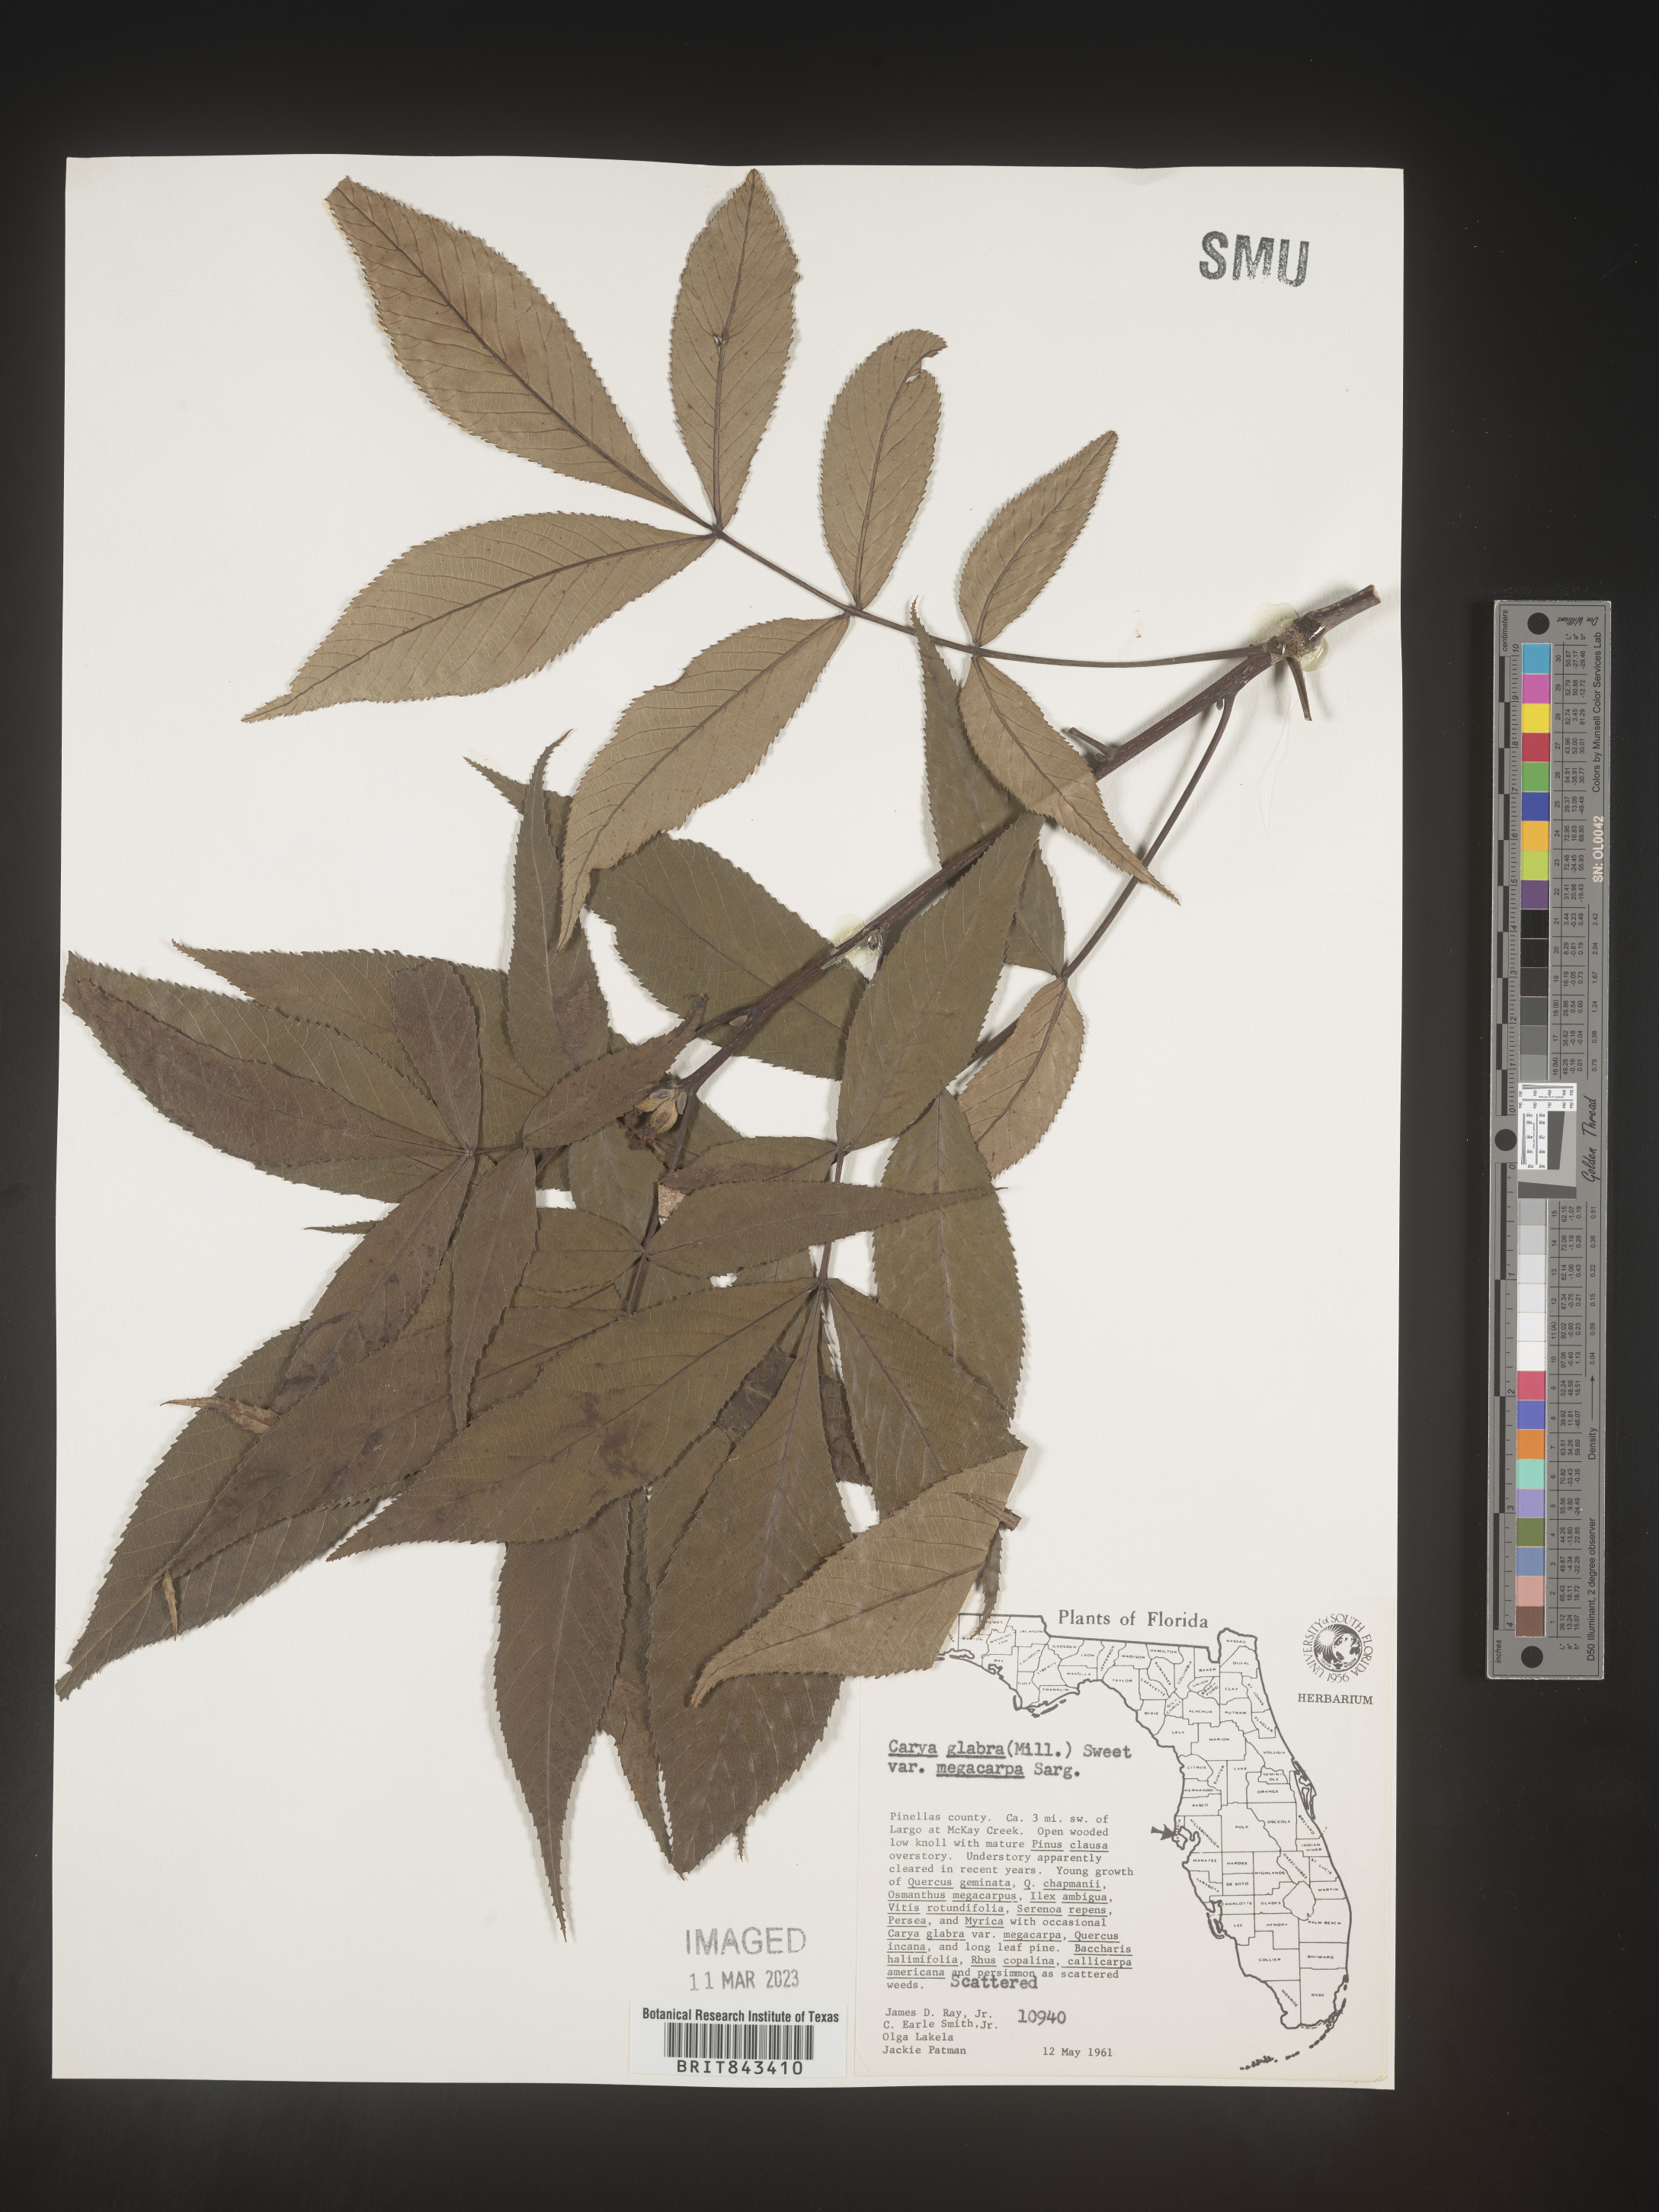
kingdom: Plantae
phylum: Tracheophyta
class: Magnoliopsida
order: Fagales
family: Juglandaceae
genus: Carya
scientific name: Carya glabra
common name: Pignut hickory
